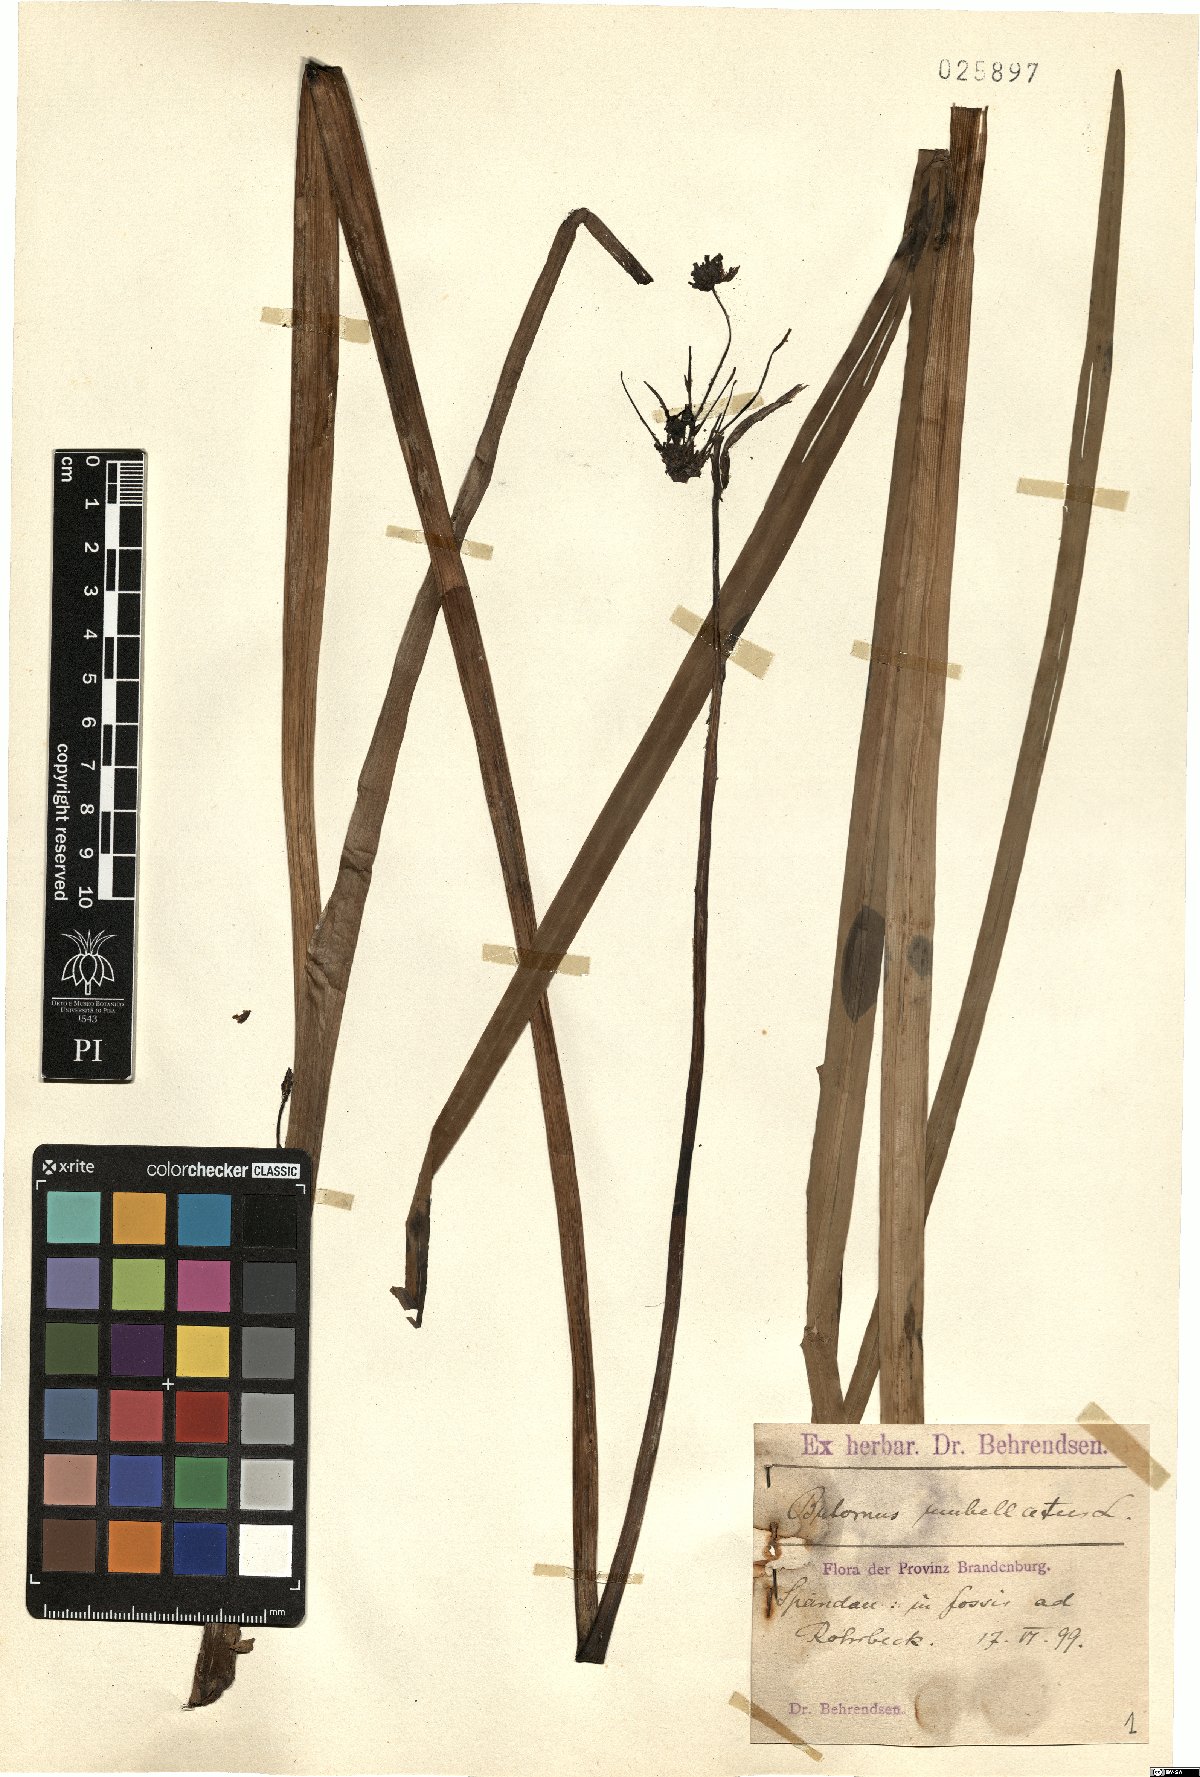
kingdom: Plantae
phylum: Tracheophyta
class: Liliopsida
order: Alismatales
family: Butomaceae
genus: Butomus
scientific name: Butomus umbellatus
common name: Flowering-rush
